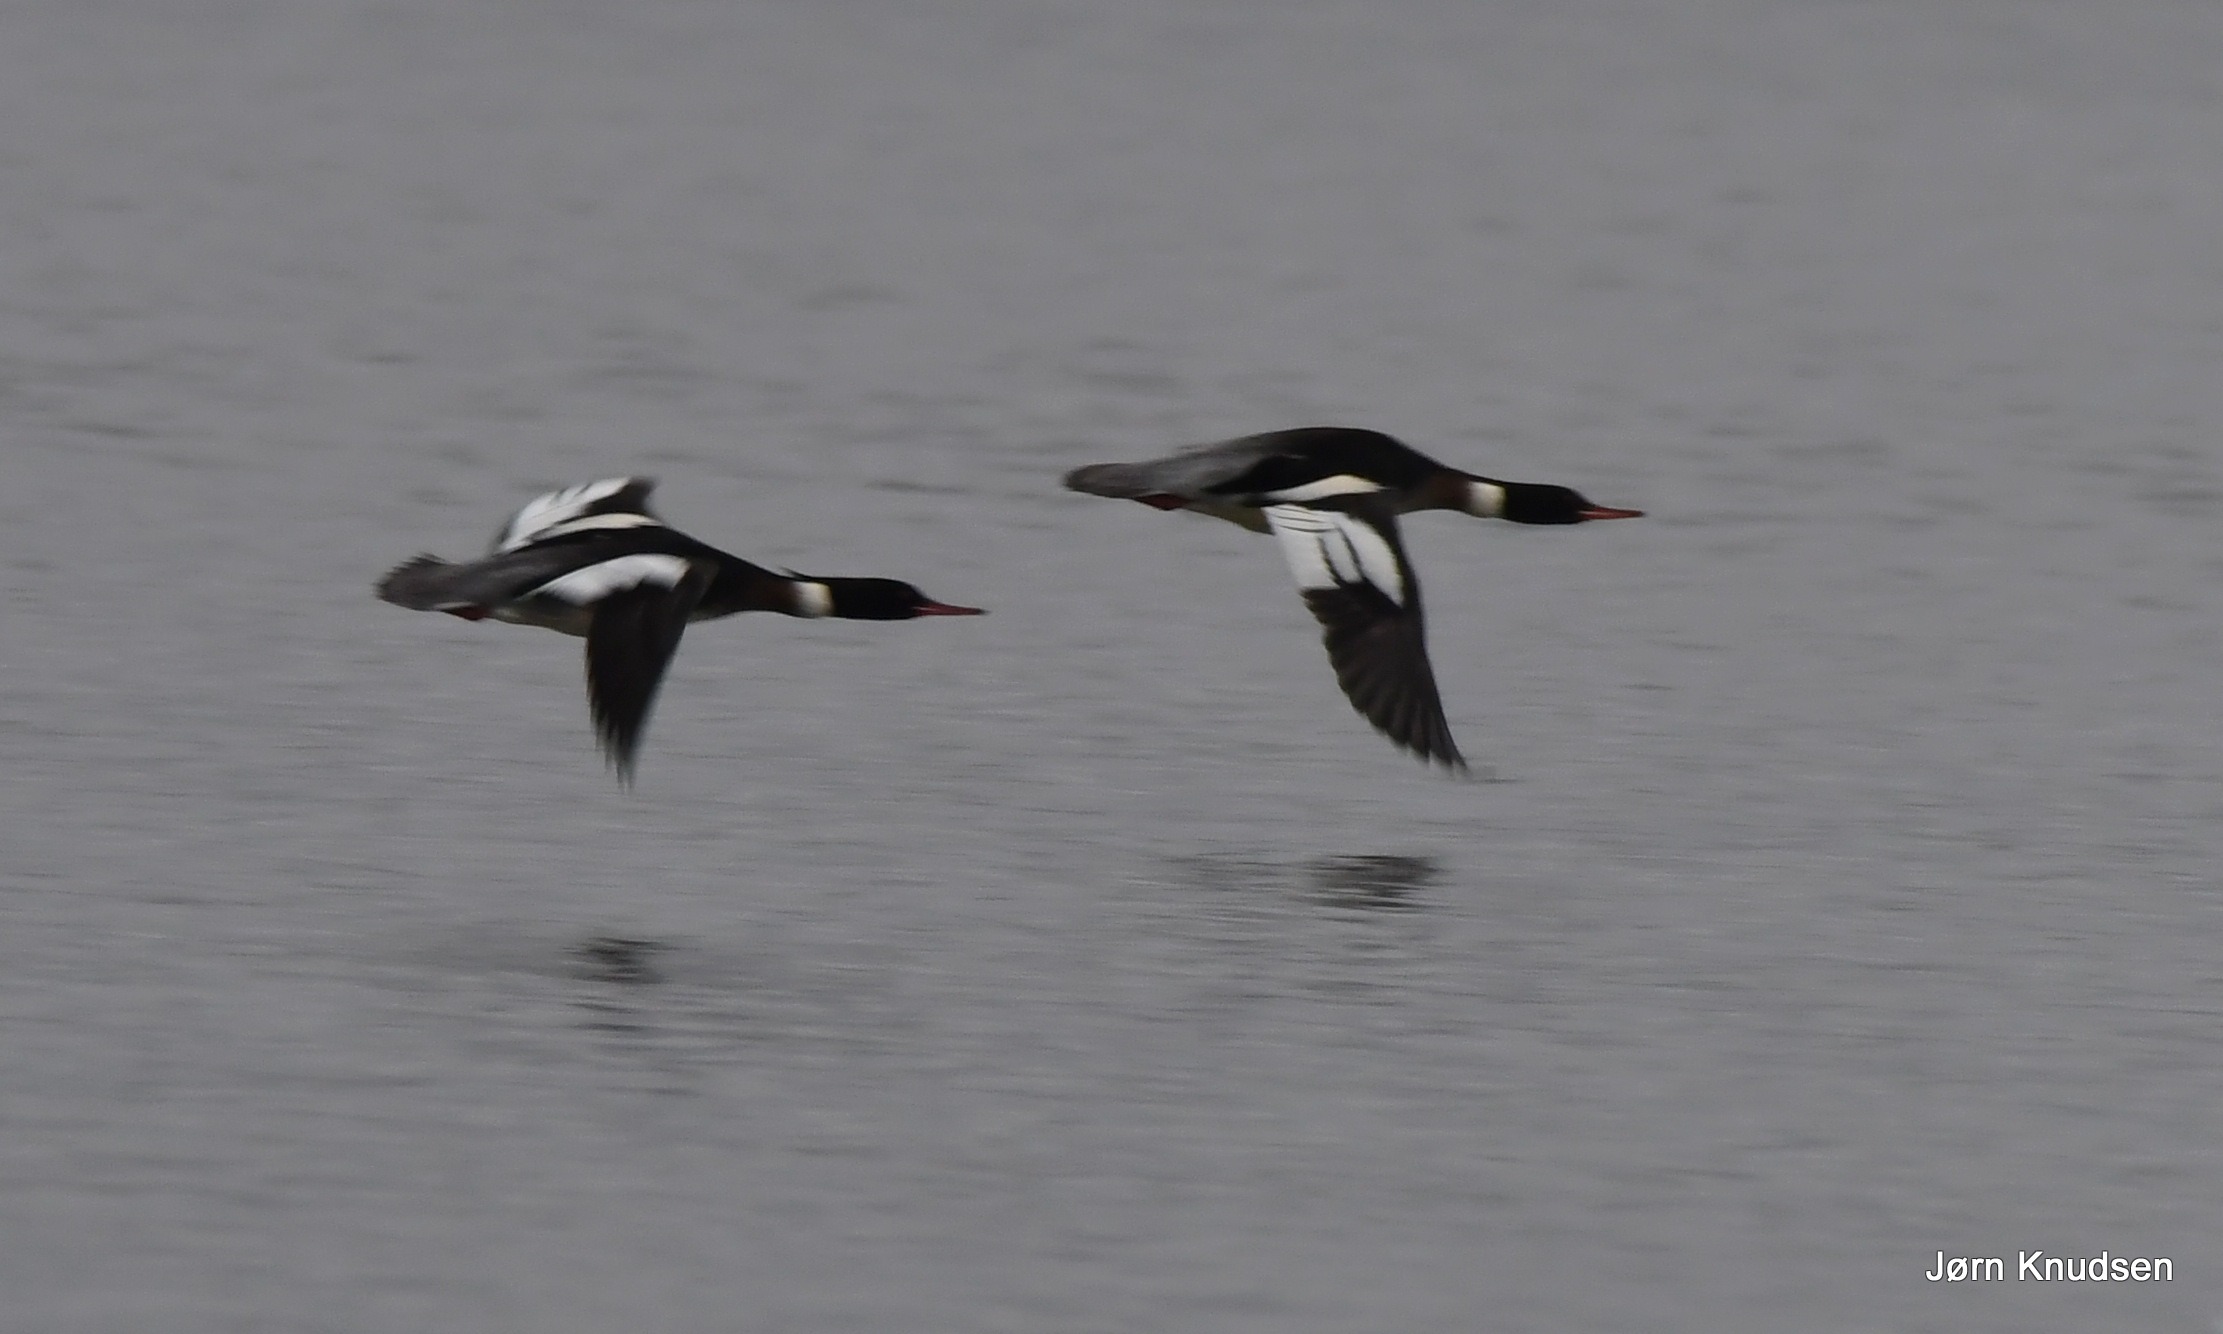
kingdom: Animalia
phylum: Chordata
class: Aves
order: Anseriformes
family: Anatidae
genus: Mergus
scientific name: Mergus serrator
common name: Toppet skallesluger
